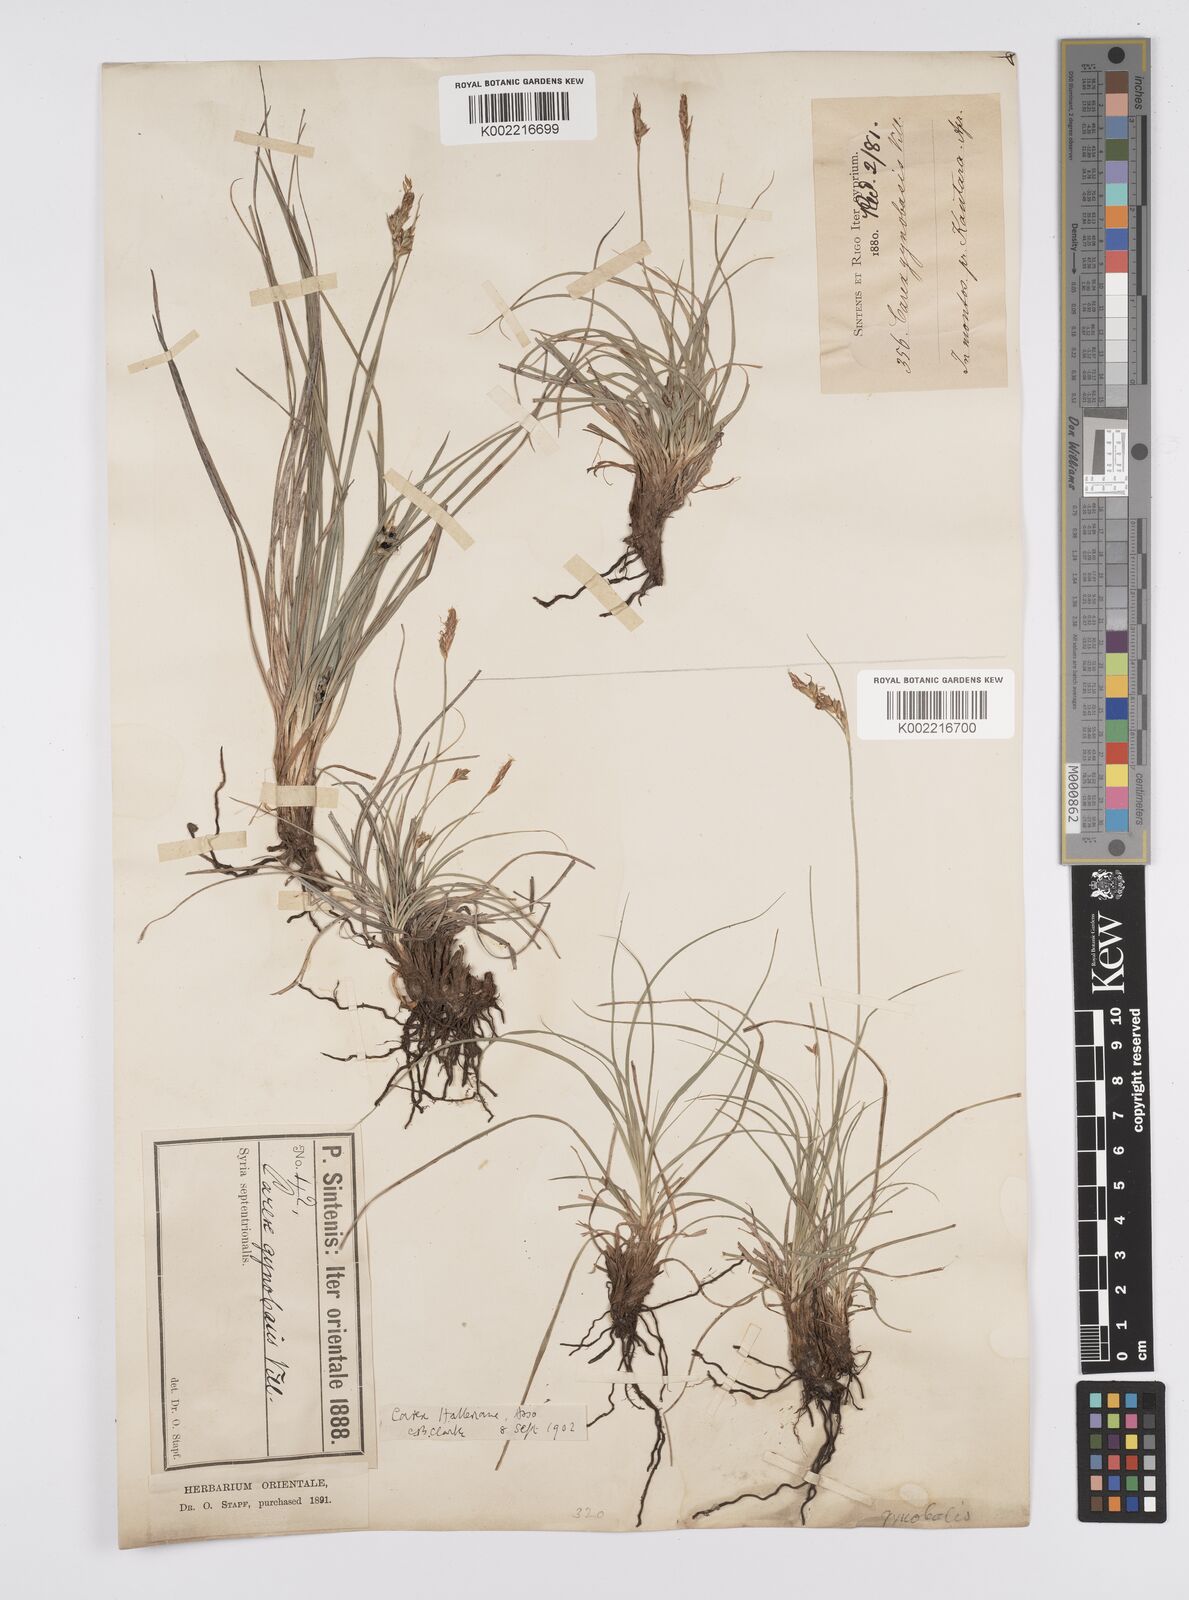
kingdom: Plantae
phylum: Tracheophyta
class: Liliopsida
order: Poales
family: Cyperaceae
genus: Carex
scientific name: Carex halleriana
